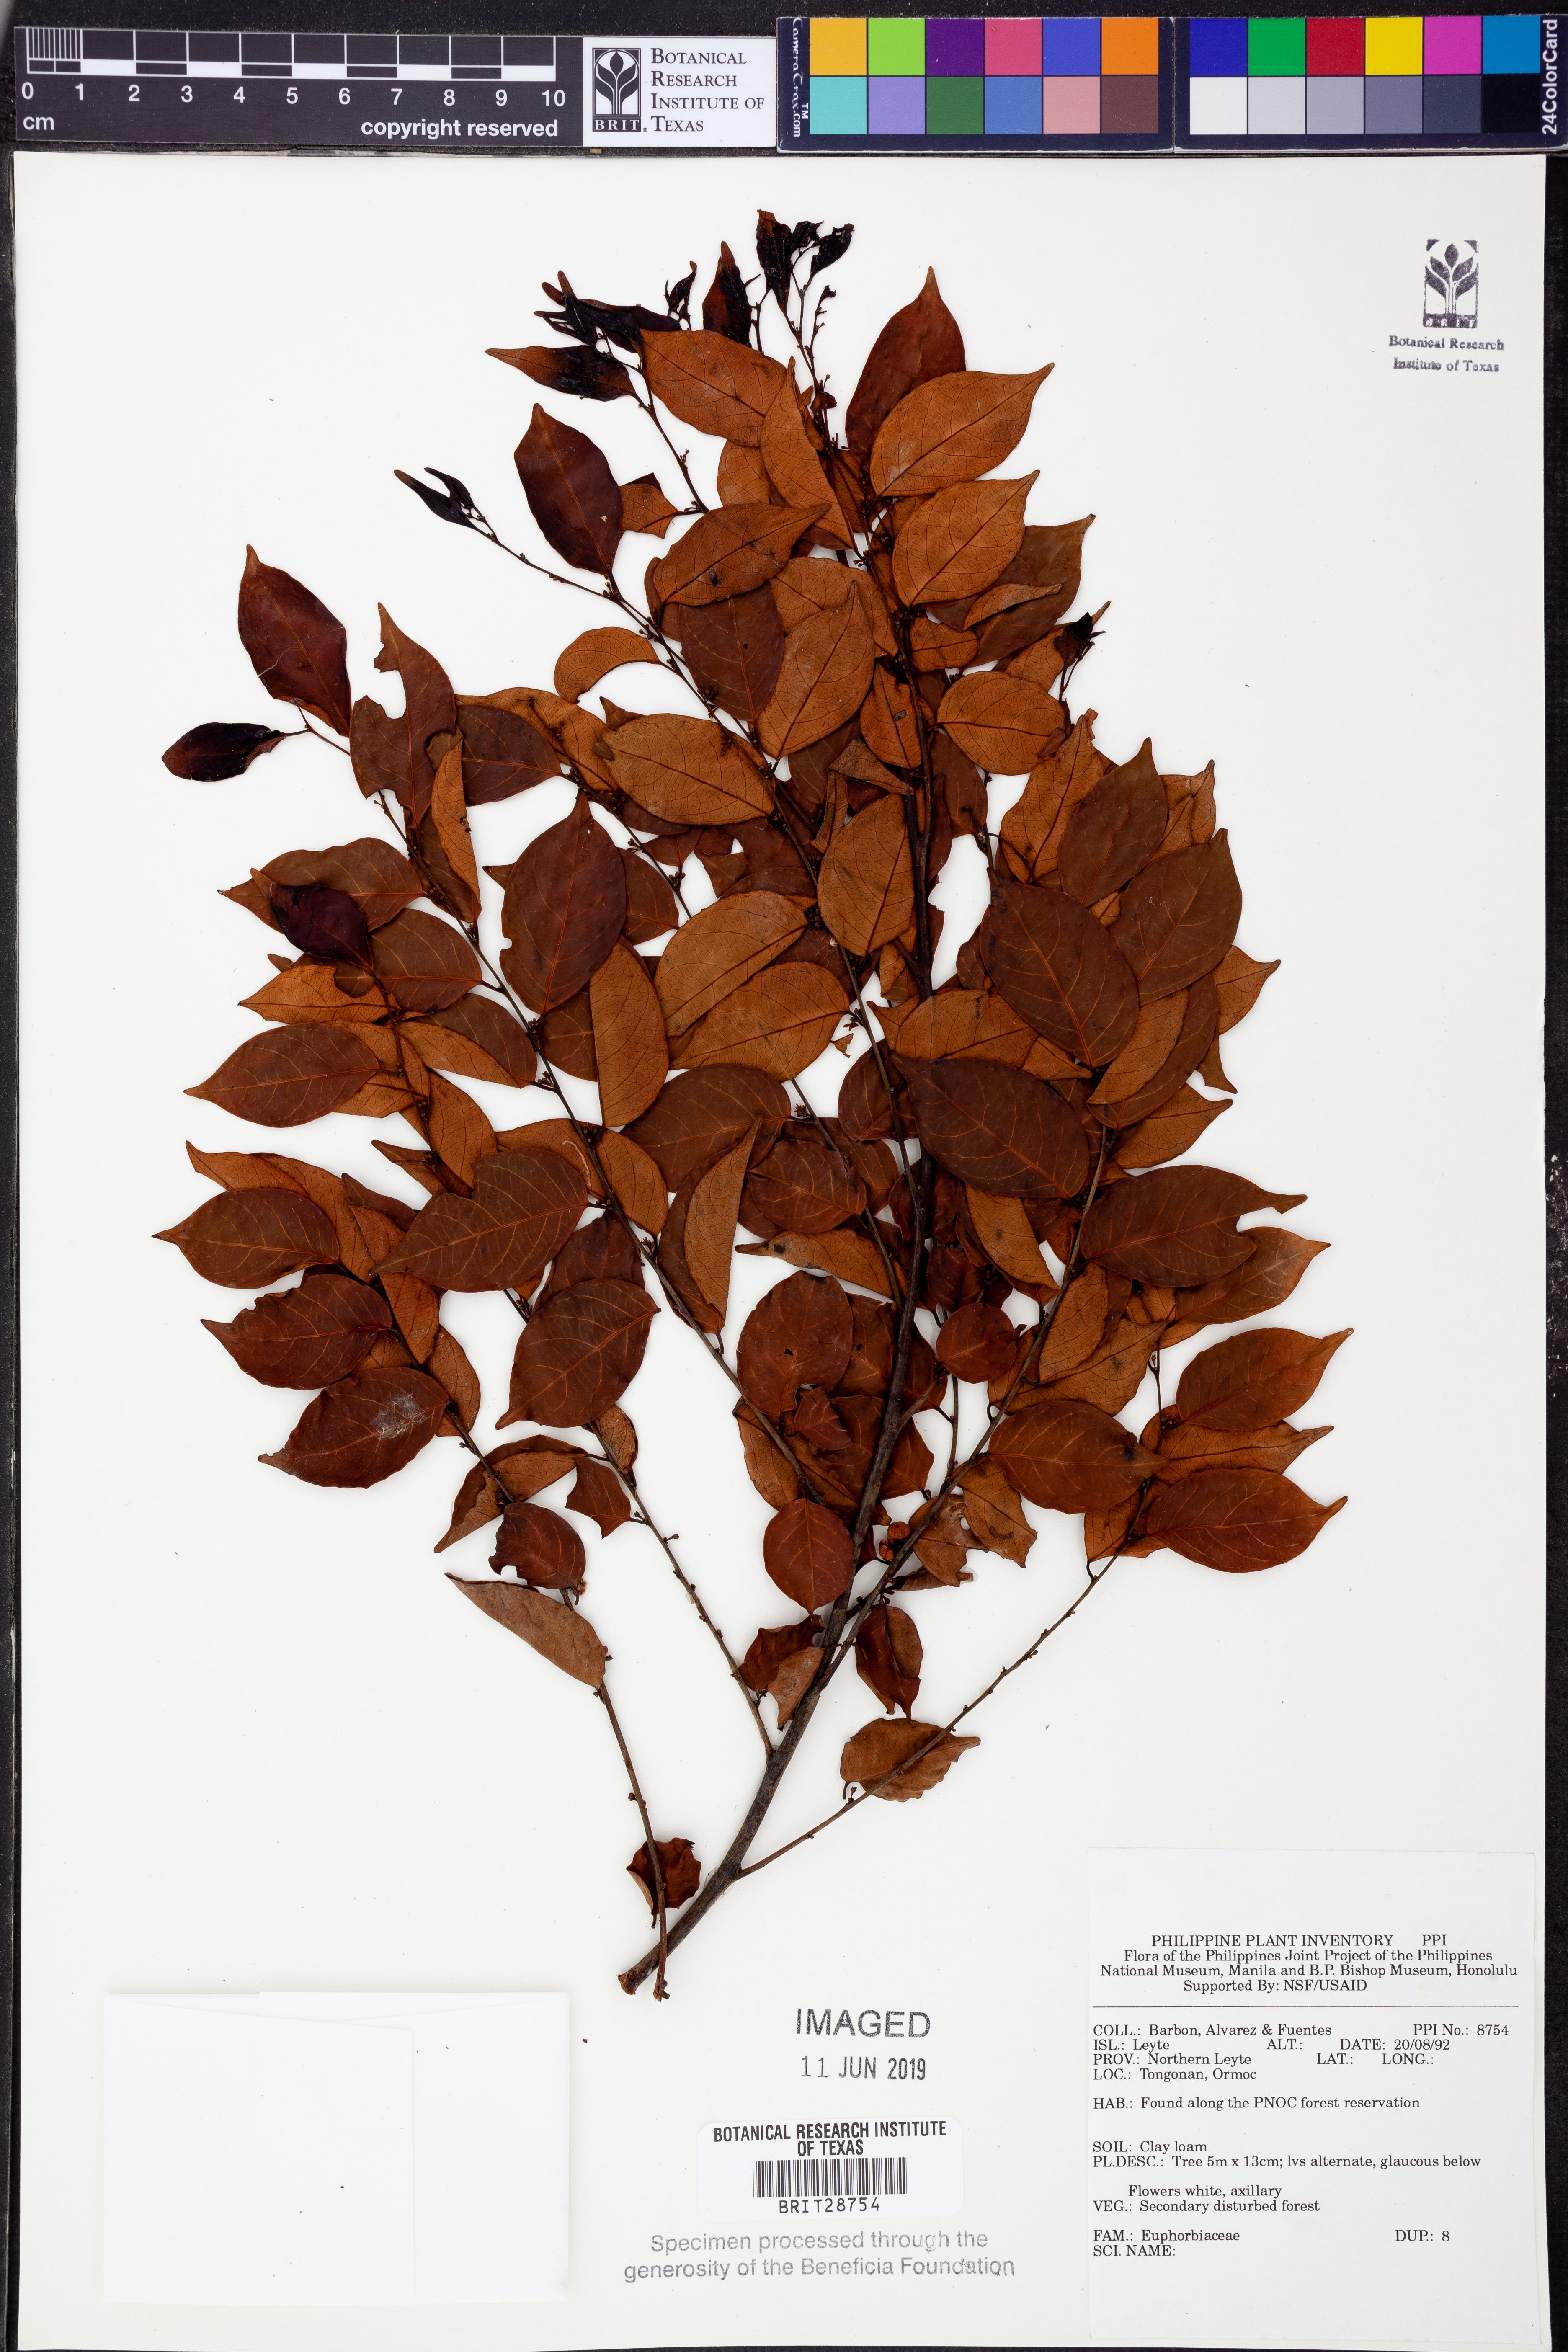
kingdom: Plantae
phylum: Tracheophyta
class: Magnoliopsida
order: Malpighiales
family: Euphorbiaceae
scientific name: Euphorbiaceae
